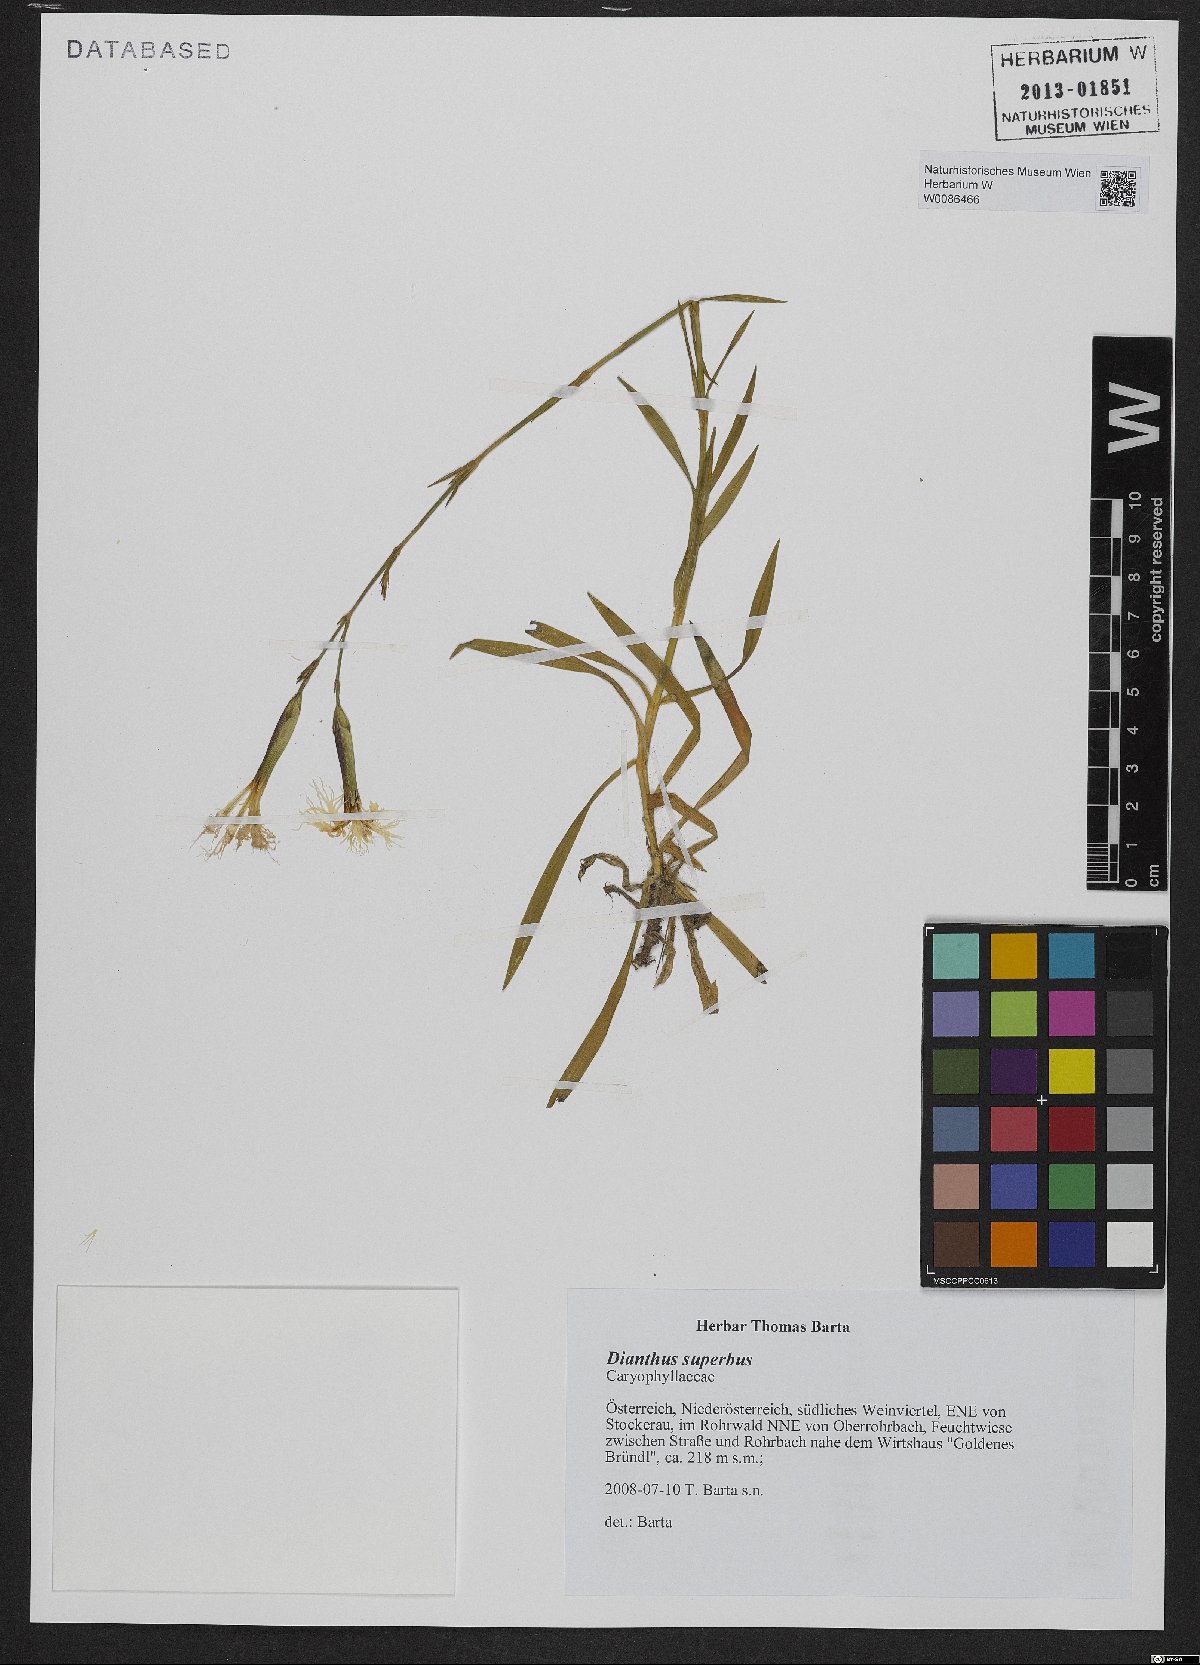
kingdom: Plantae
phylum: Tracheophyta
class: Magnoliopsida
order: Caryophyllales
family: Caryophyllaceae
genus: Dianthus
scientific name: Dianthus superbus
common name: Fringed pink
